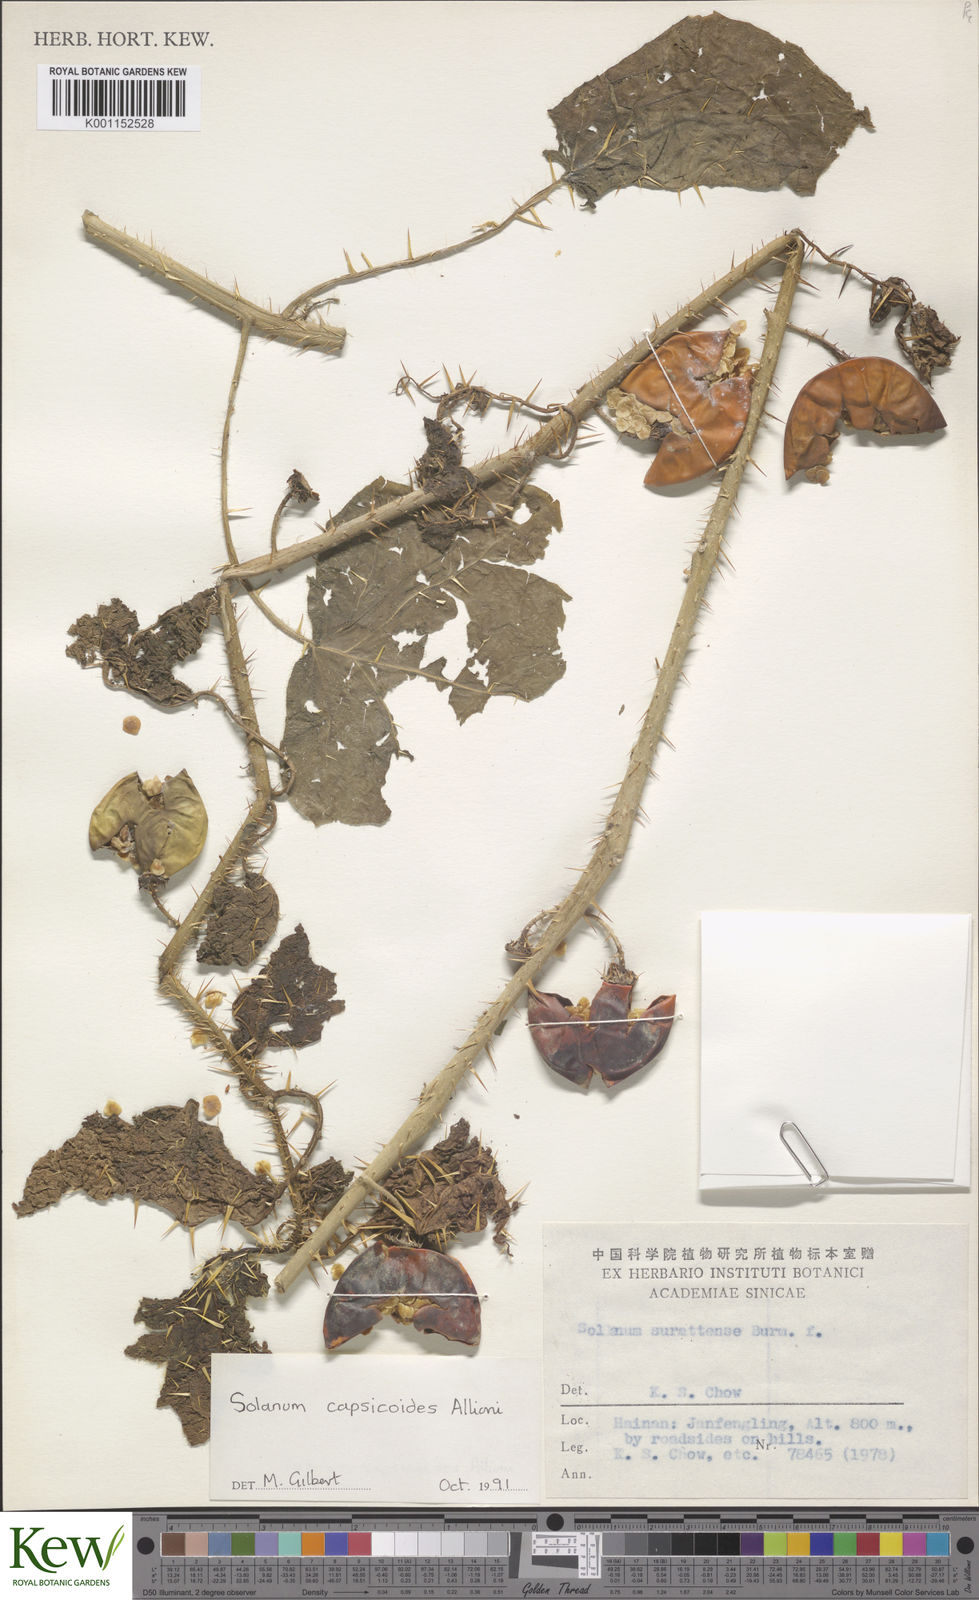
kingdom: Plantae
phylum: Tracheophyta
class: Magnoliopsida
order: Solanales
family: Solanaceae
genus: Solanum
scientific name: Solanum capsicoides
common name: Cockroach berry
